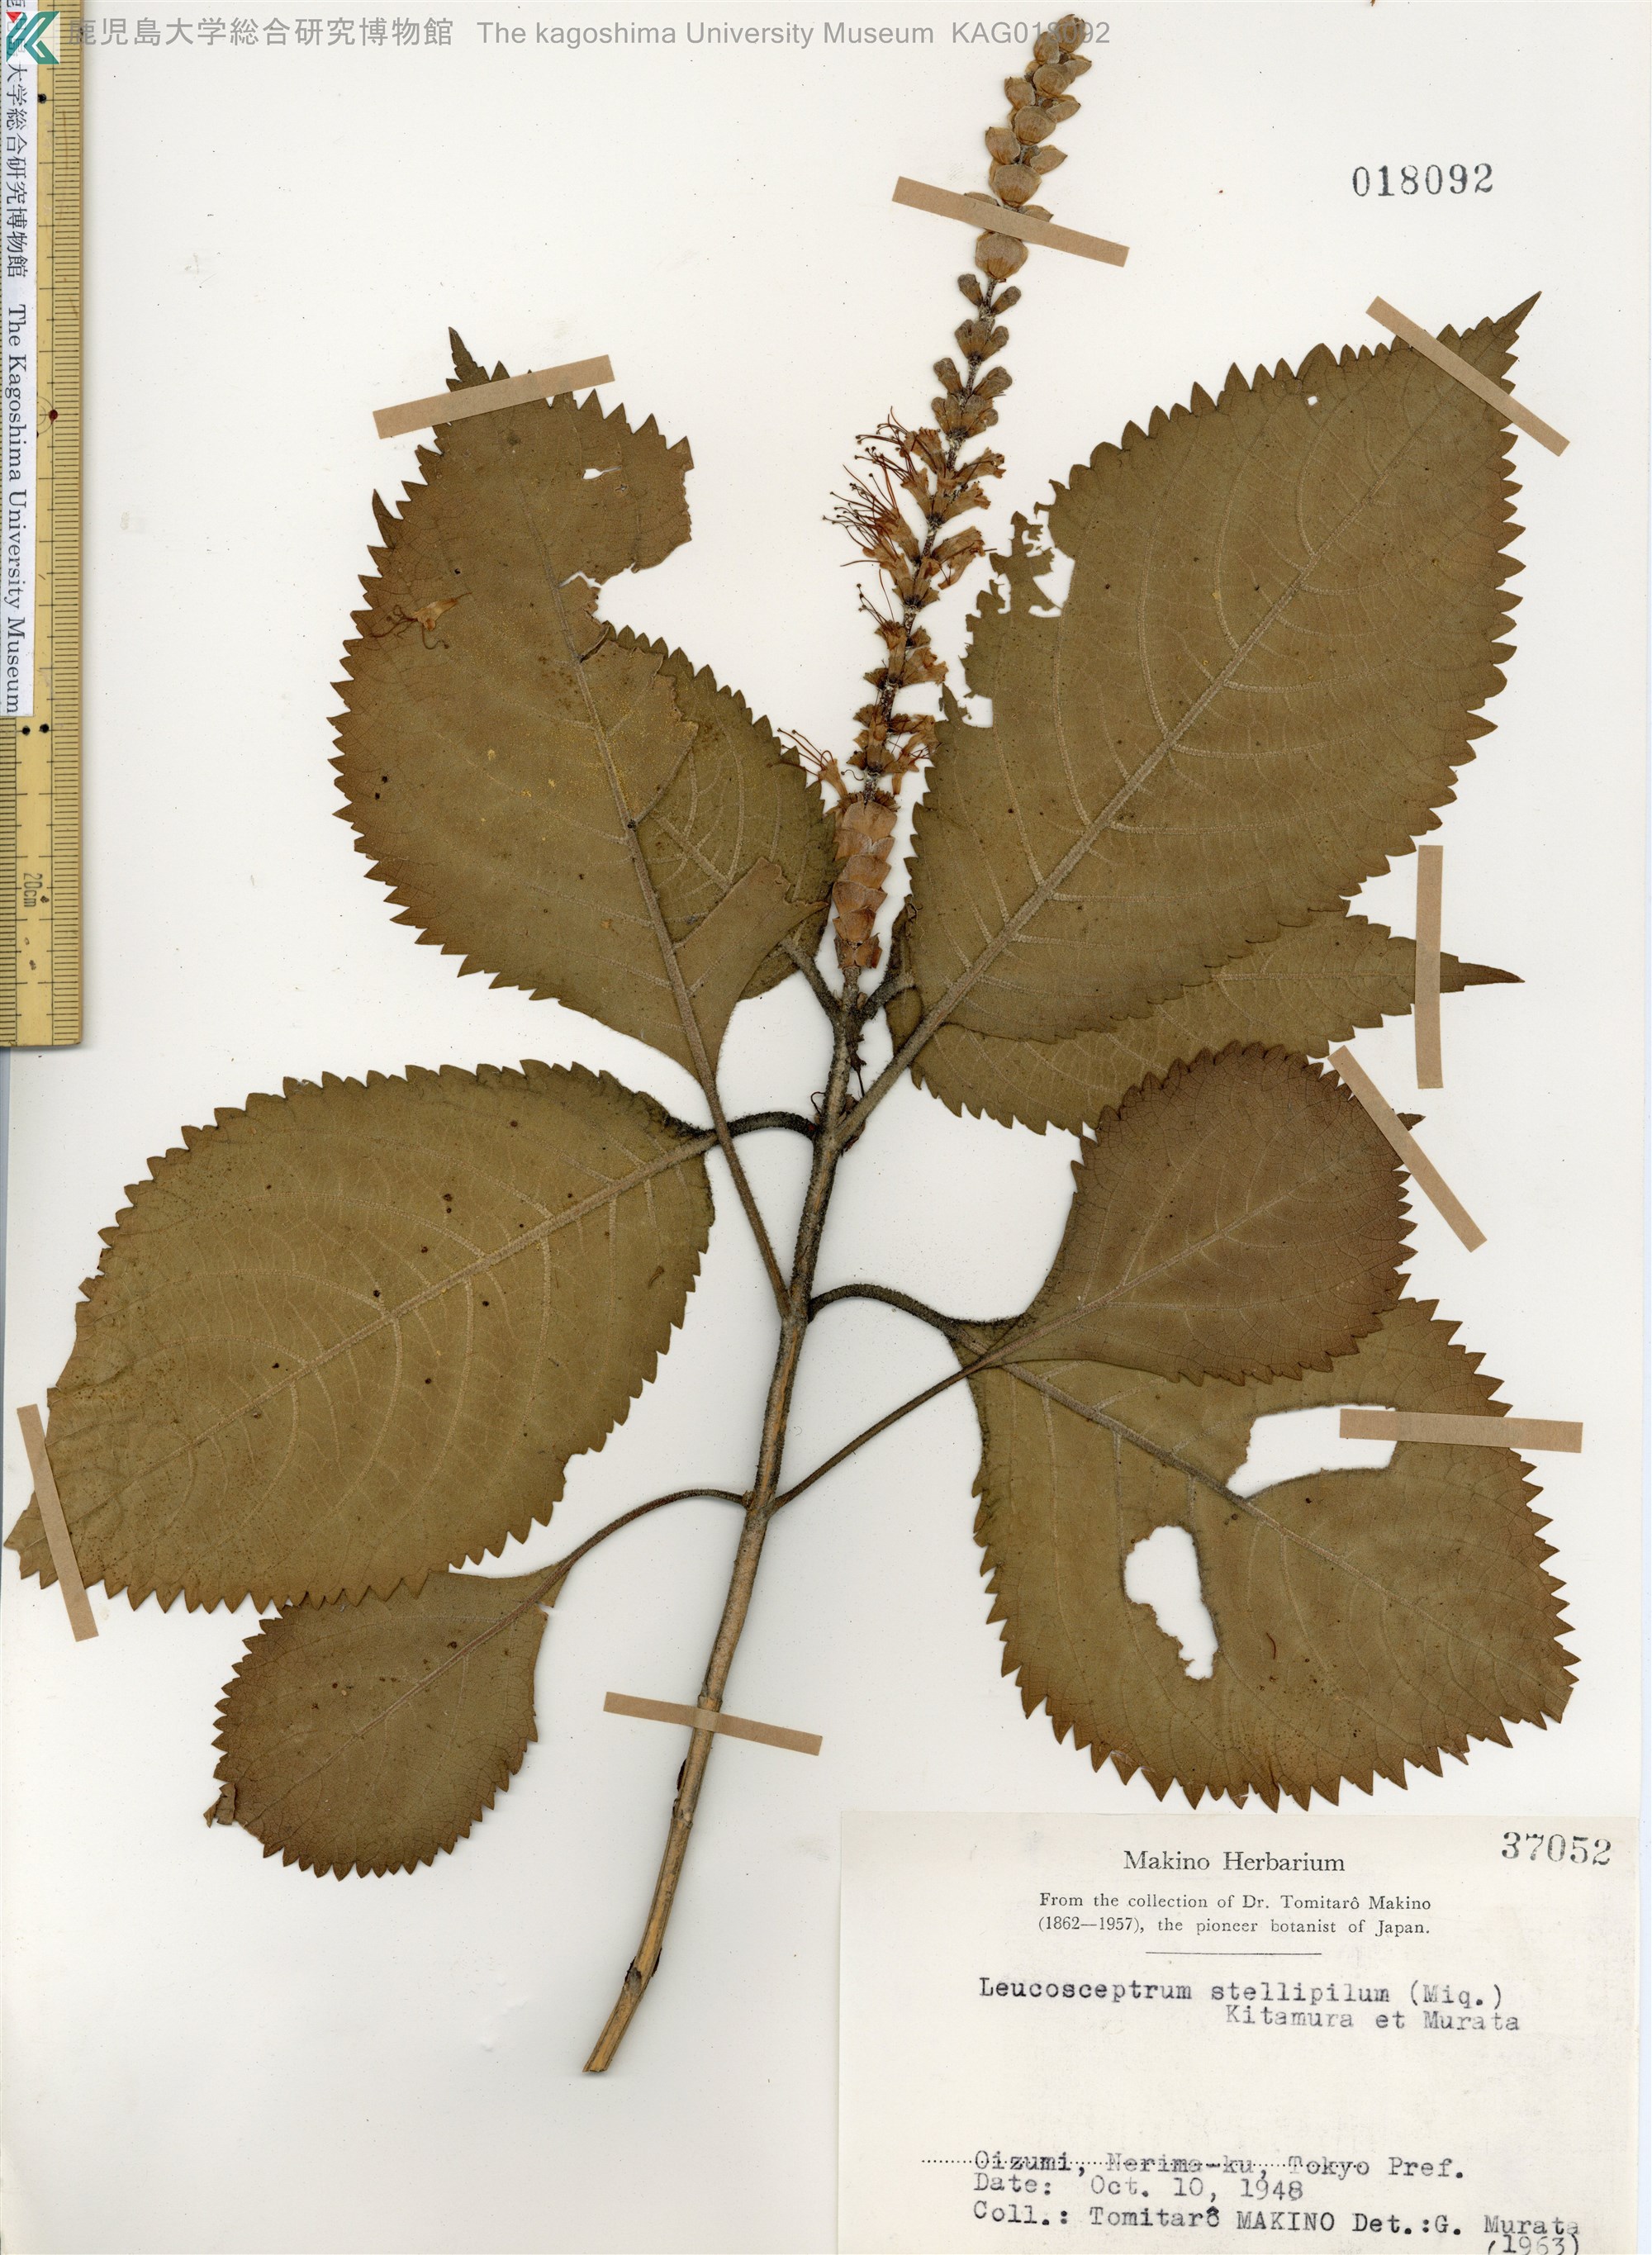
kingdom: Plantae
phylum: Tracheophyta
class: Magnoliopsida
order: Lamiales
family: Lamiaceae
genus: Comanthosphace
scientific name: Comanthosphace stellipila
